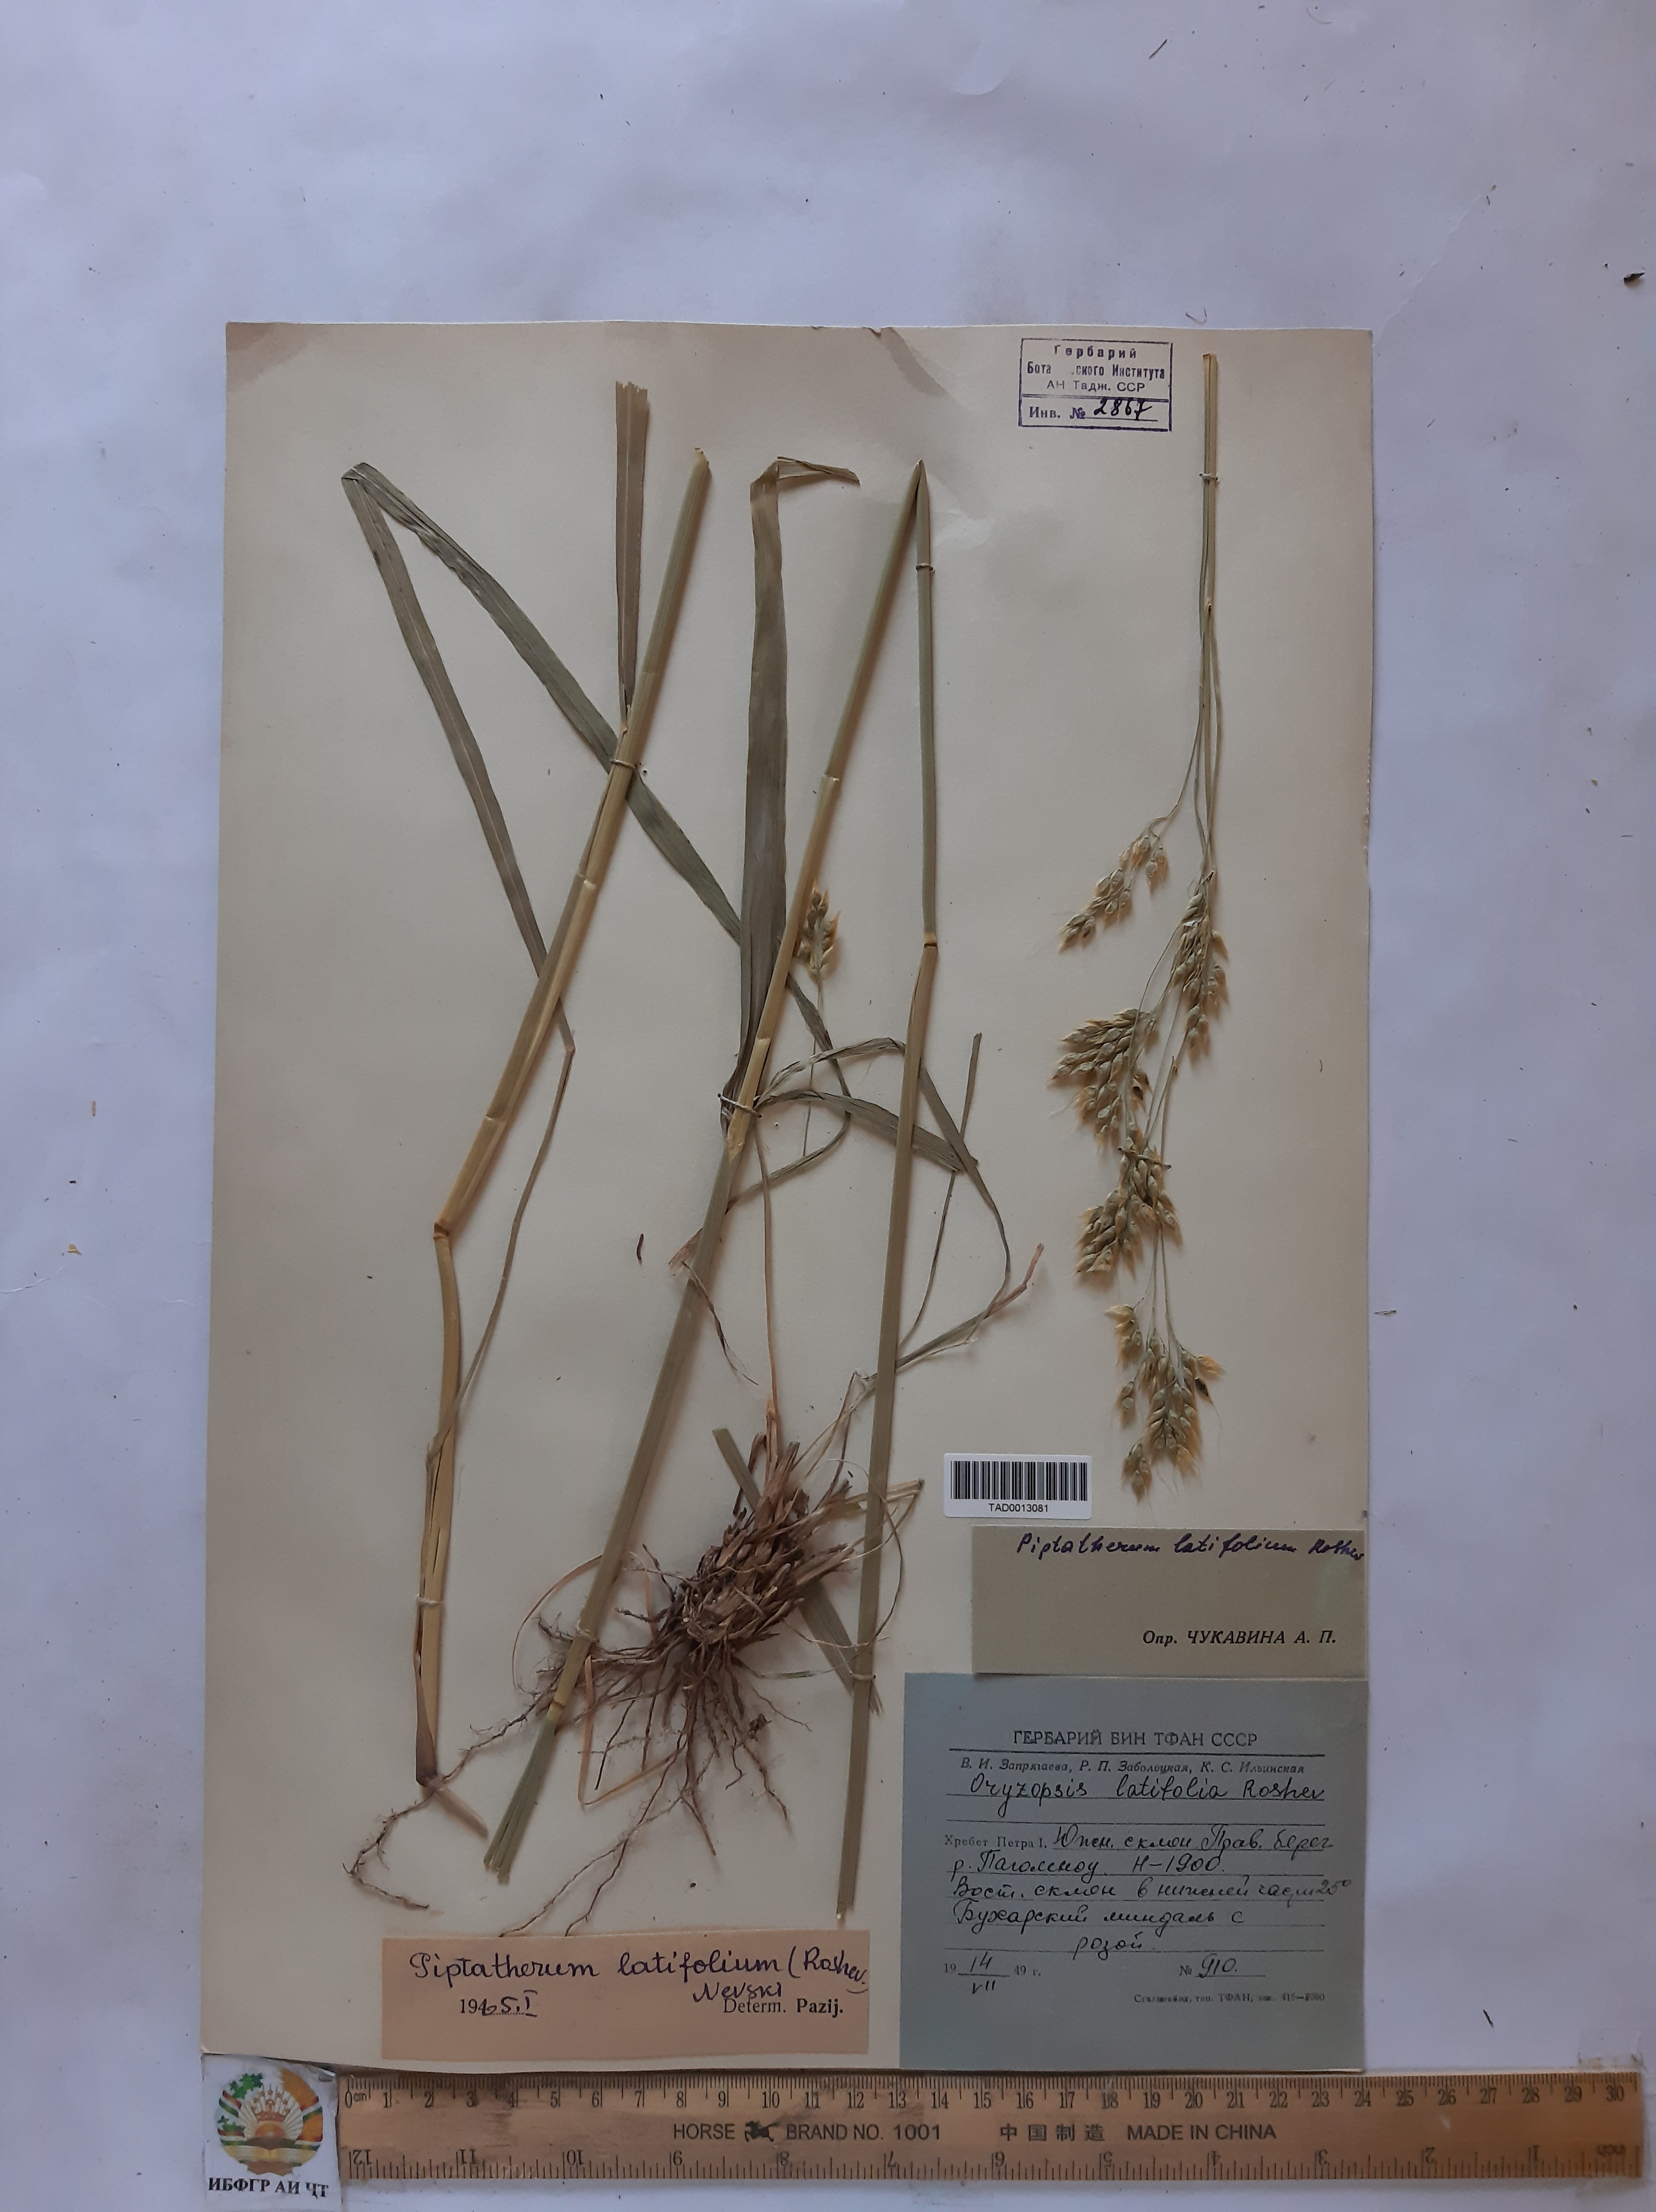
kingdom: Plantae
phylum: Tracheophyta
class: Liliopsida
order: Poales
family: Poaceae
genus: Piptatherum
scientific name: Piptatherum laterale
